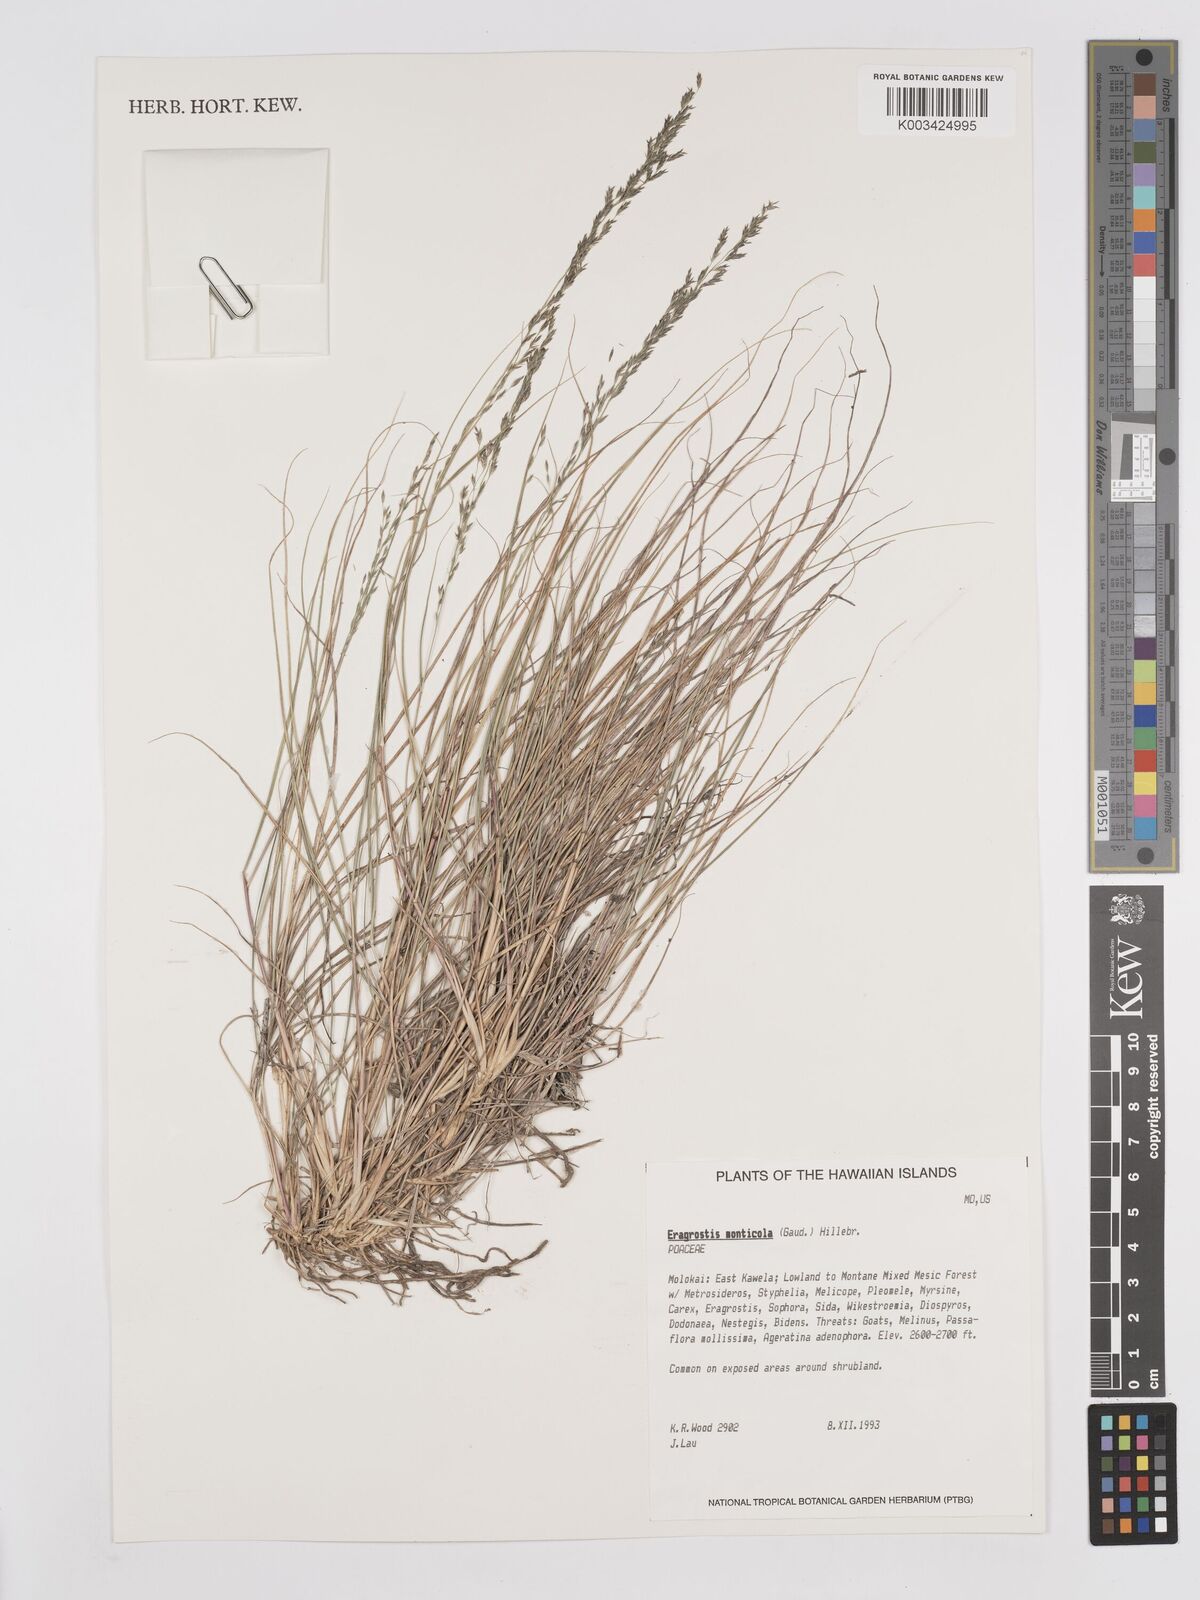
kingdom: Plantae
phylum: Tracheophyta
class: Liliopsida
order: Poales
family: Poaceae
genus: Eragrostis
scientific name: Eragrostis monticola
